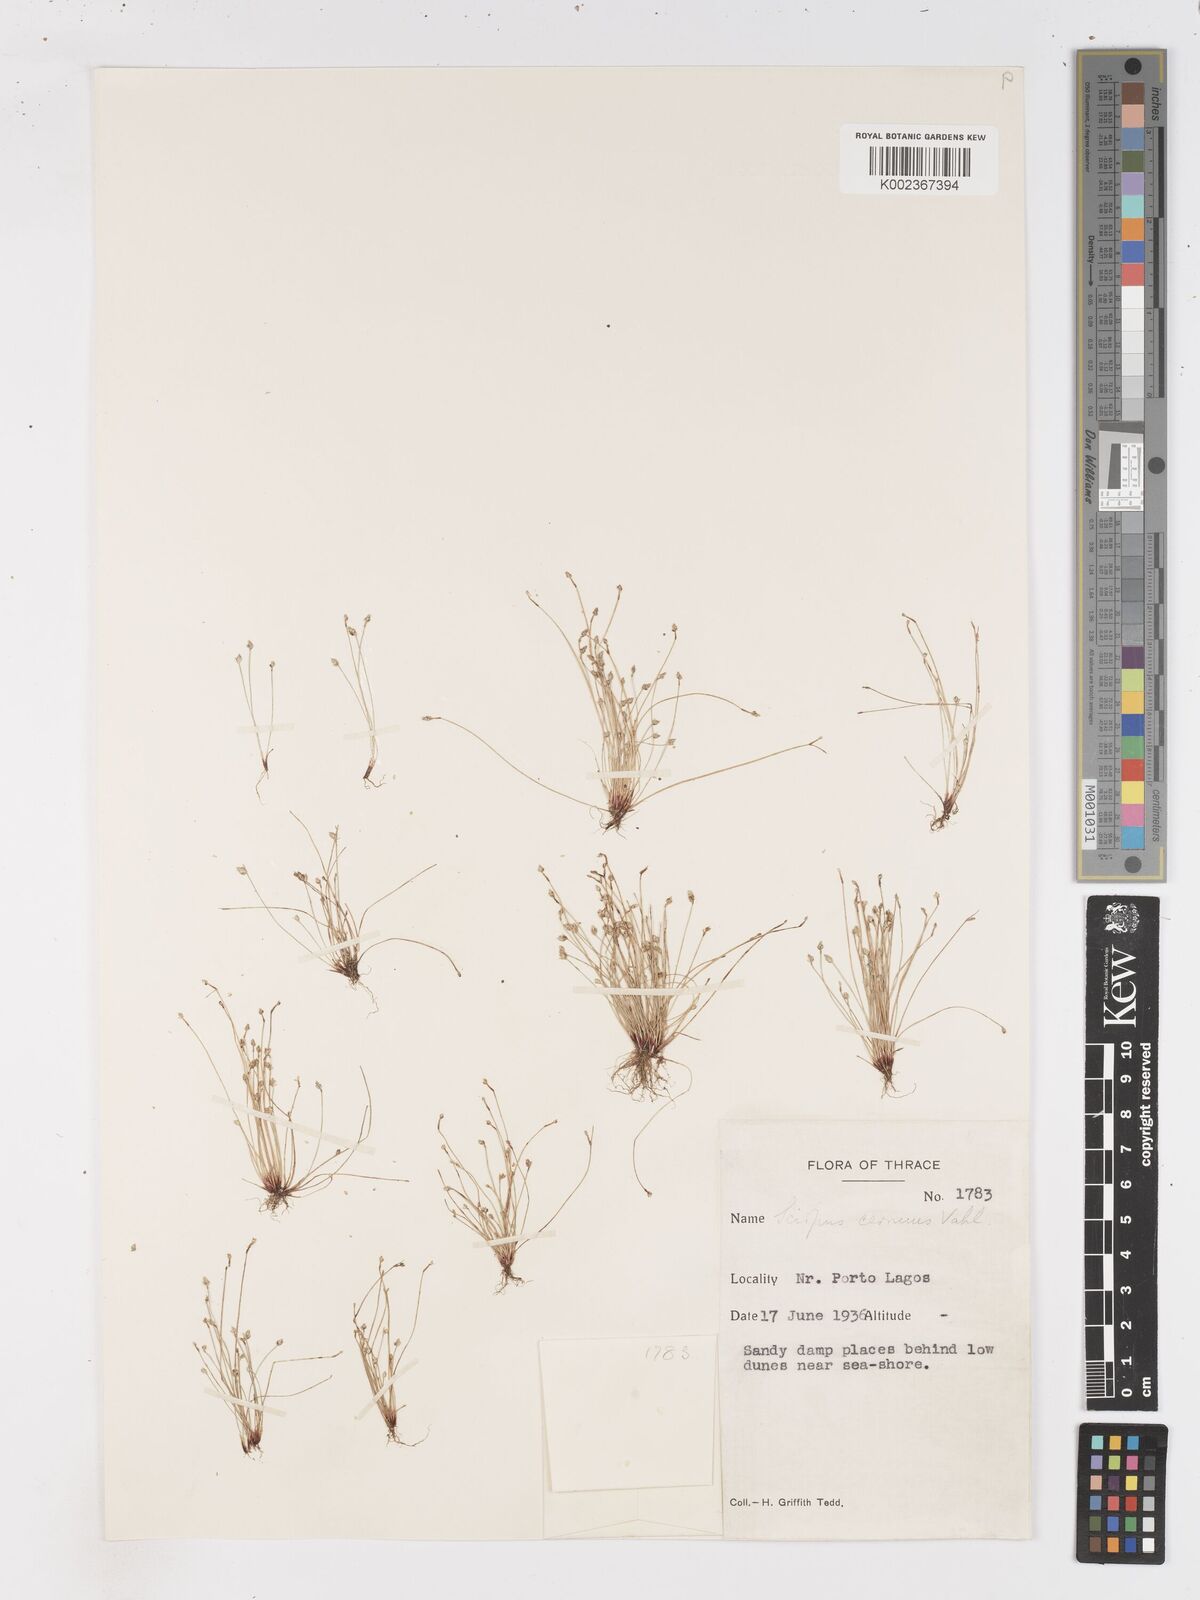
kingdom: Plantae
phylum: Tracheophyta
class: Liliopsida
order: Poales
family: Cyperaceae
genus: Isolepis
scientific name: Isolepis cernua
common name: Slender club-rush
